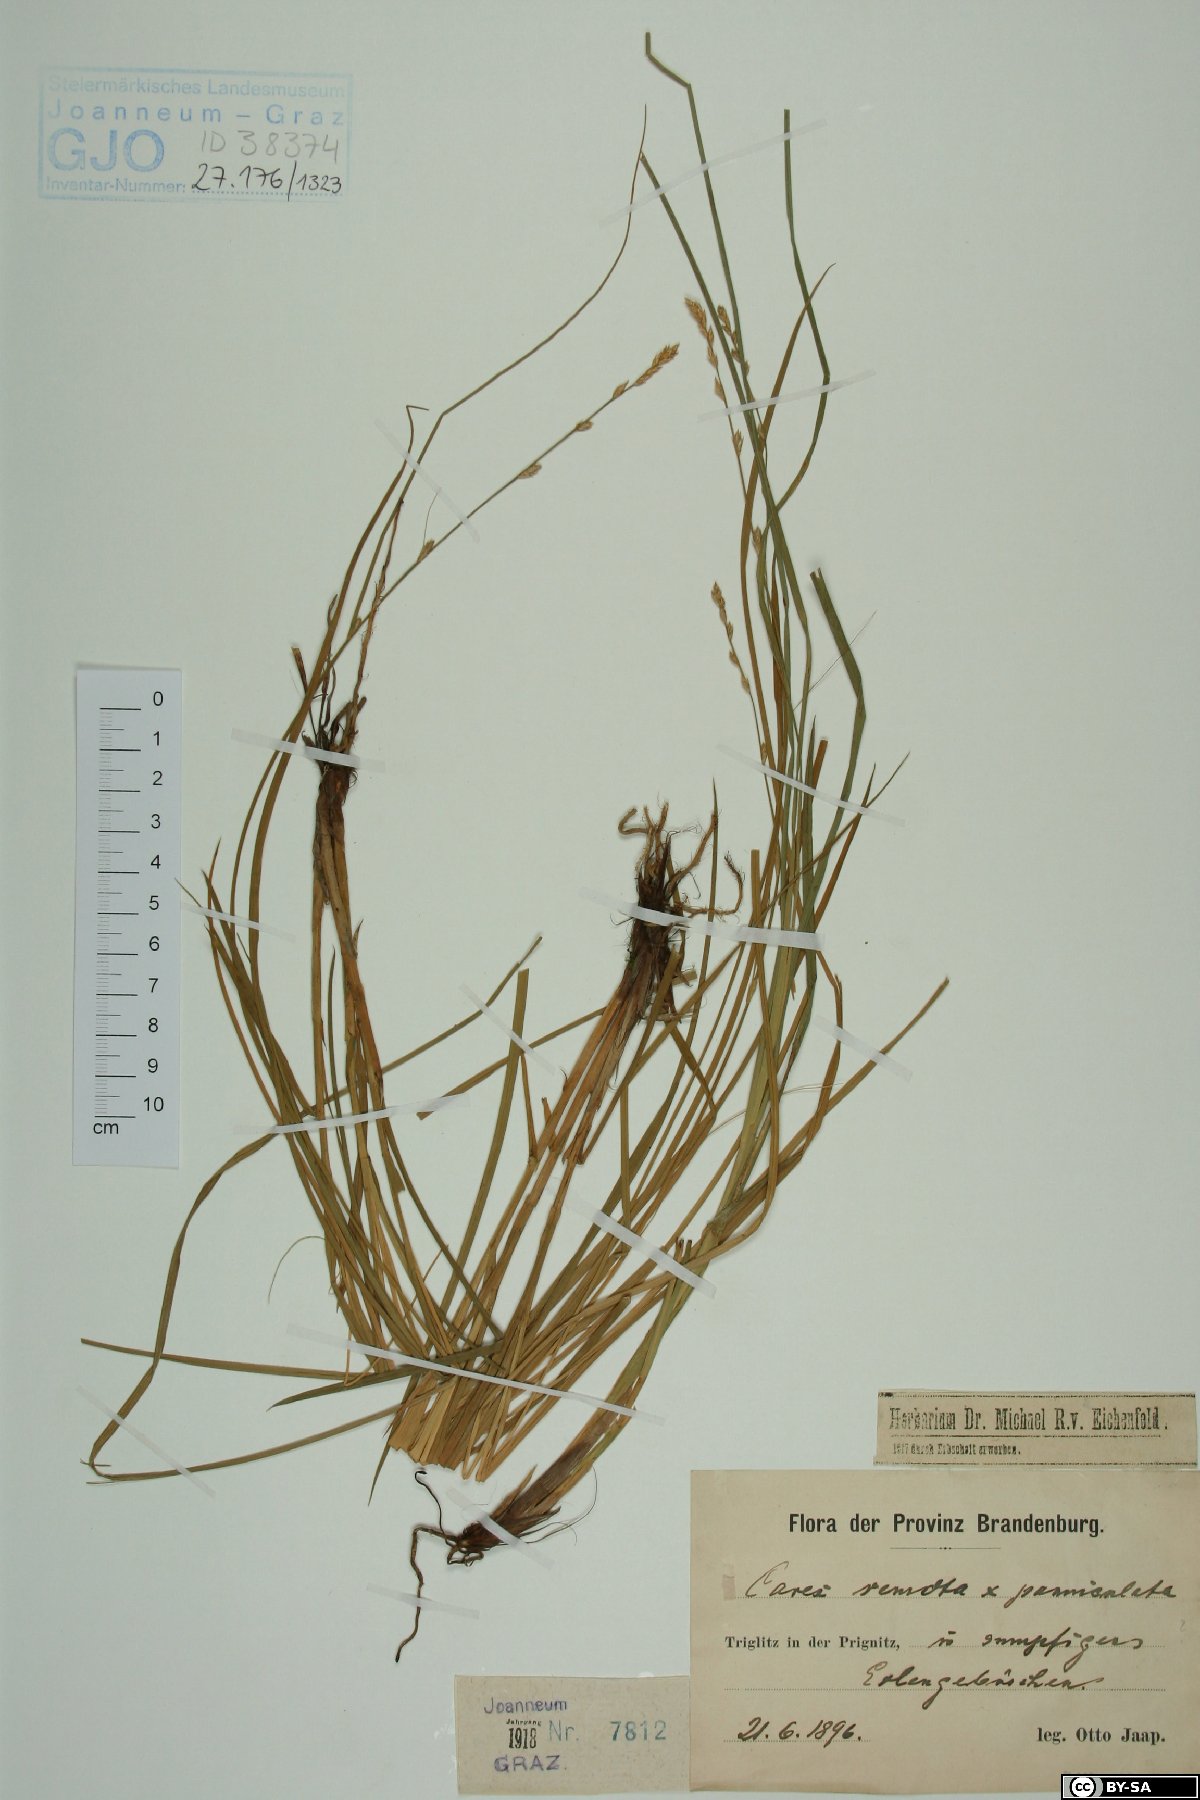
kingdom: Plantae
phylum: Tracheophyta
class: Liliopsida
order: Poales
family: Cyperaceae
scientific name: Cyperaceae
